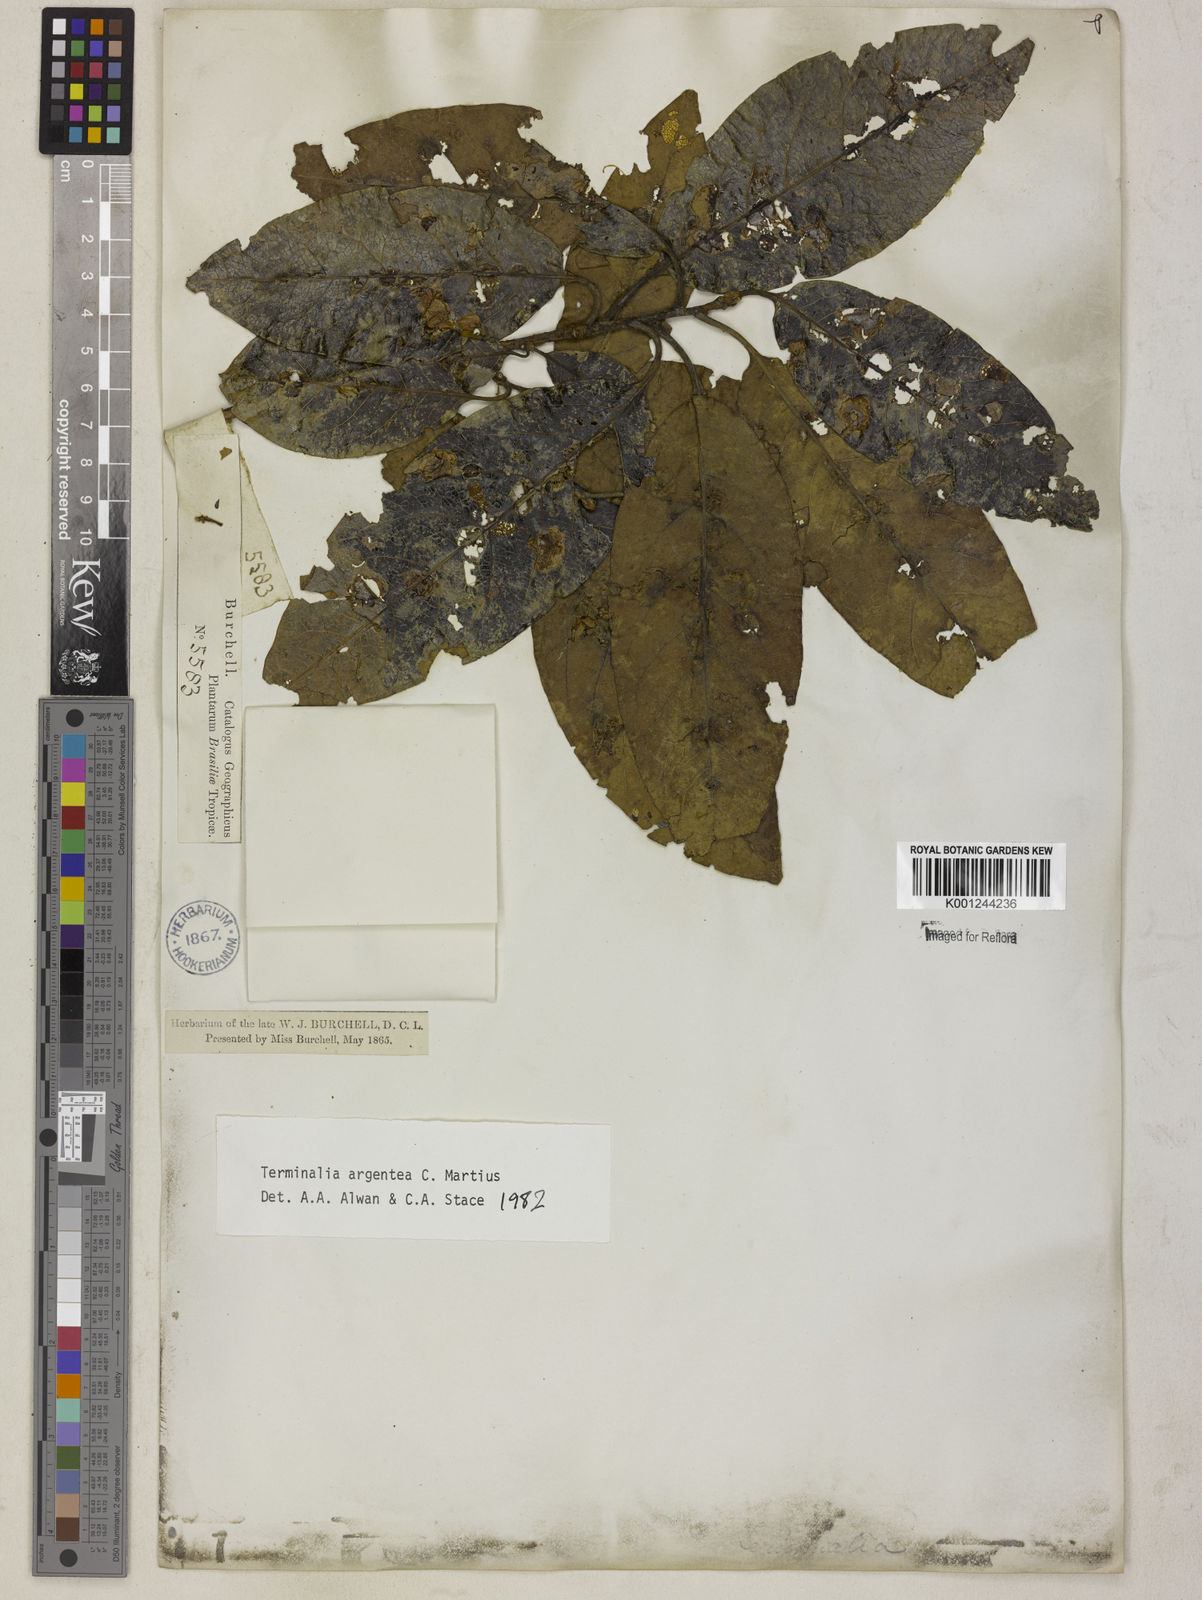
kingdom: Plantae
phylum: Tracheophyta
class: Magnoliopsida
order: Myrtales
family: Combretaceae
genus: Terminalia
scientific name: Terminalia argentea
